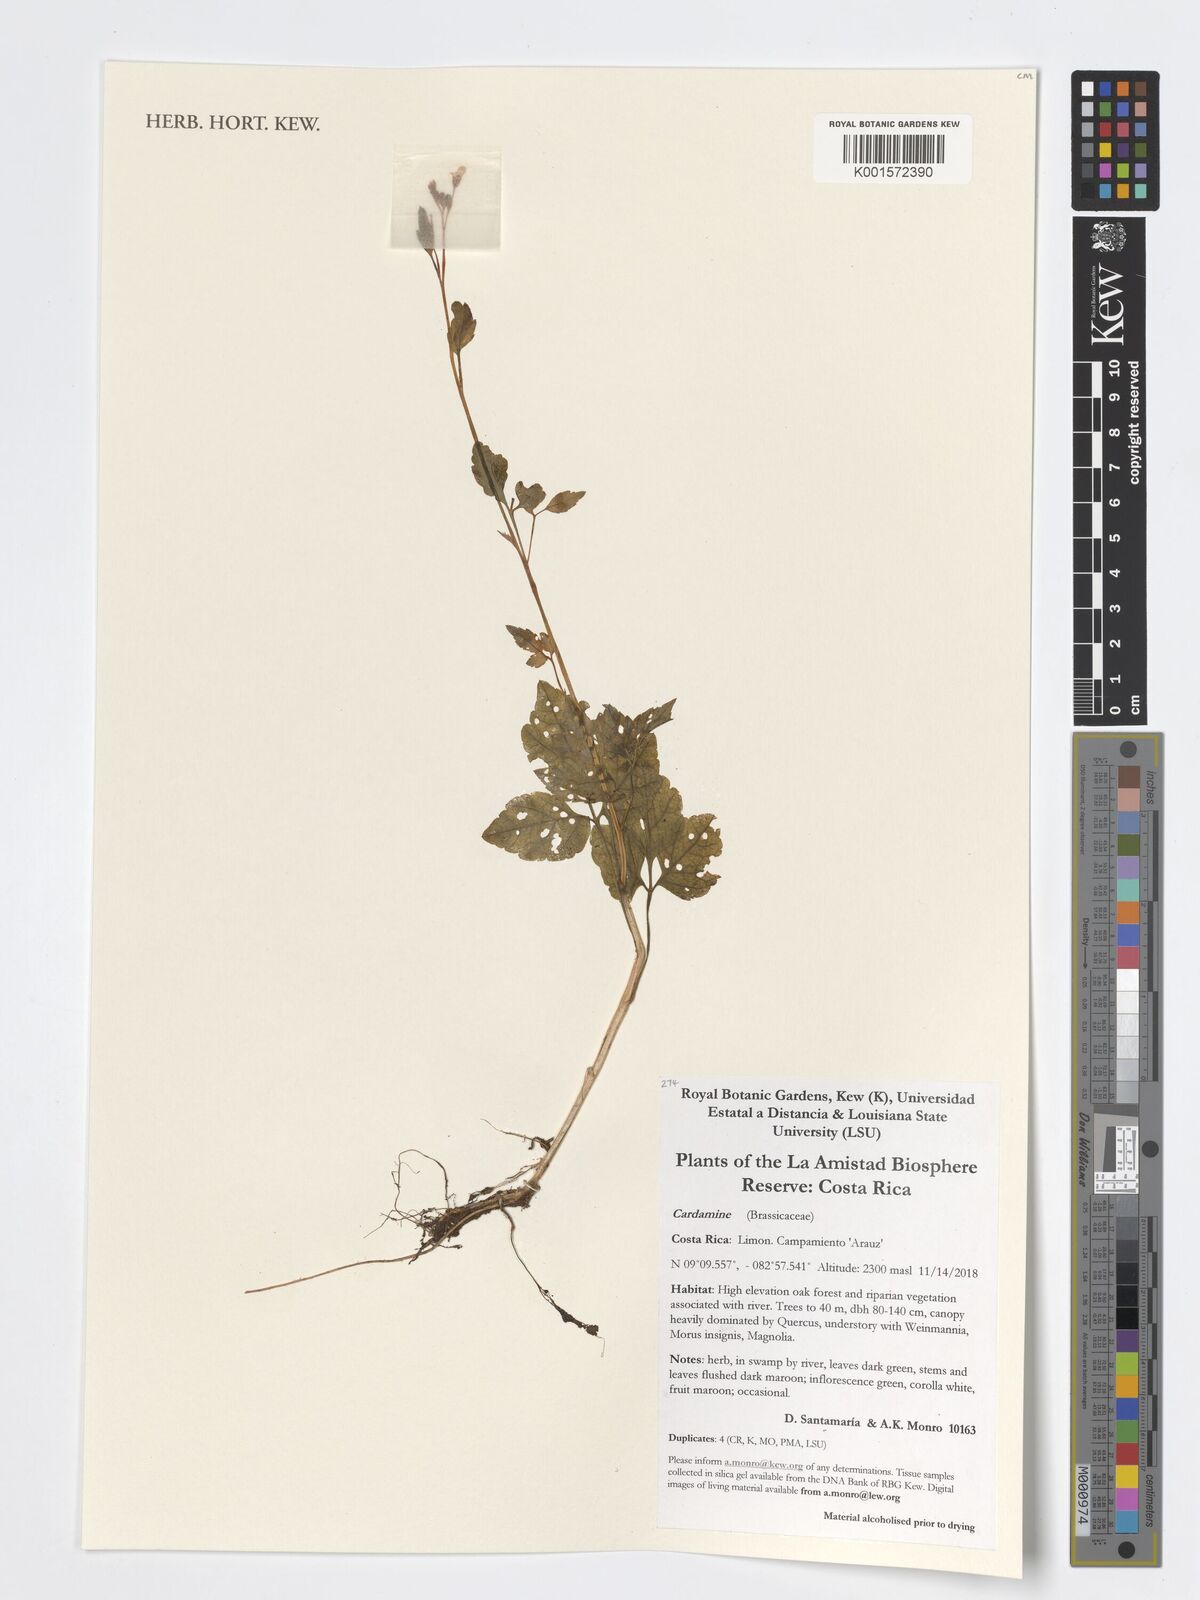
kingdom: Plantae
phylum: Tracheophyta
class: Magnoliopsida
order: Brassicales
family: Brassicaceae
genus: Cardamine
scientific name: Cardamine
